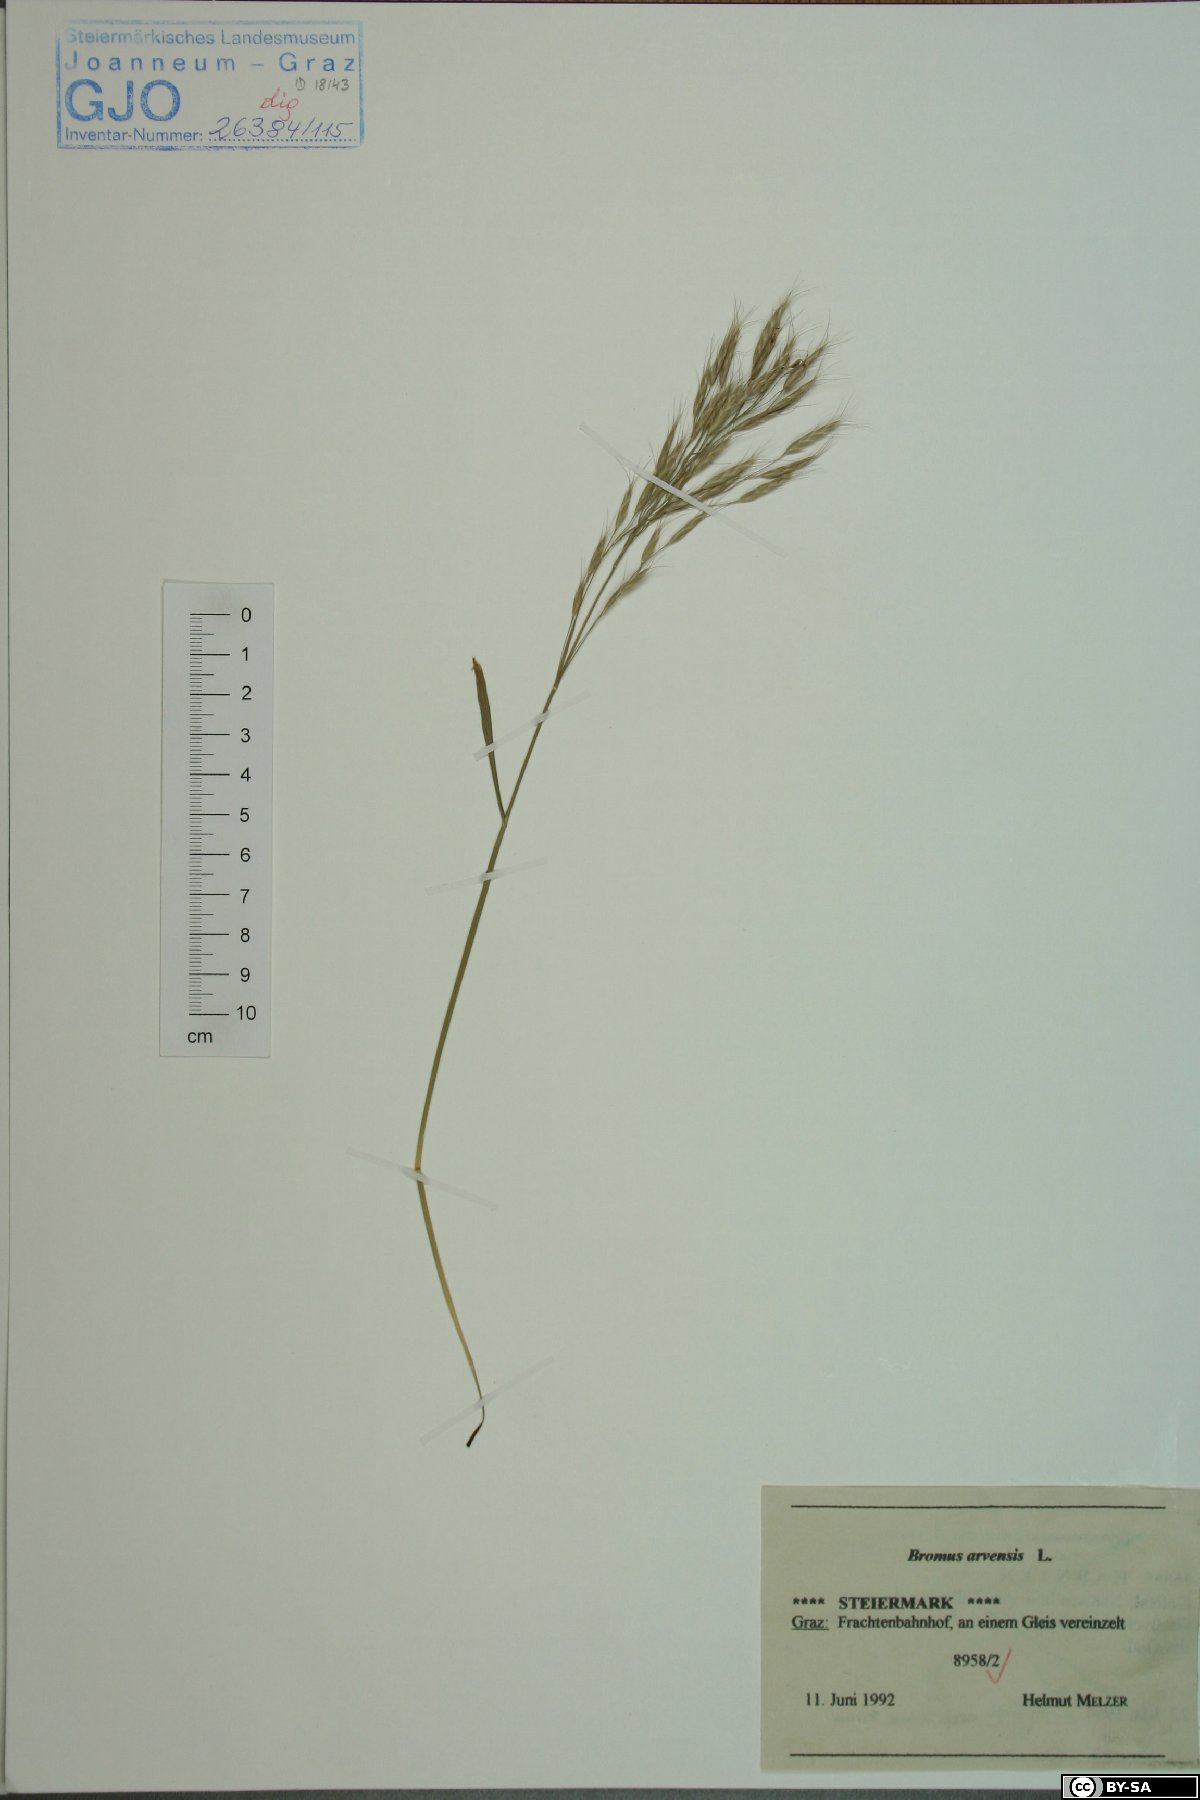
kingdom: Plantae
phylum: Tracheophyta
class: Liliopsida
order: Poales
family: Poaceae
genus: Bromus
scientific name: Bromus arvensis
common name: Field brome
